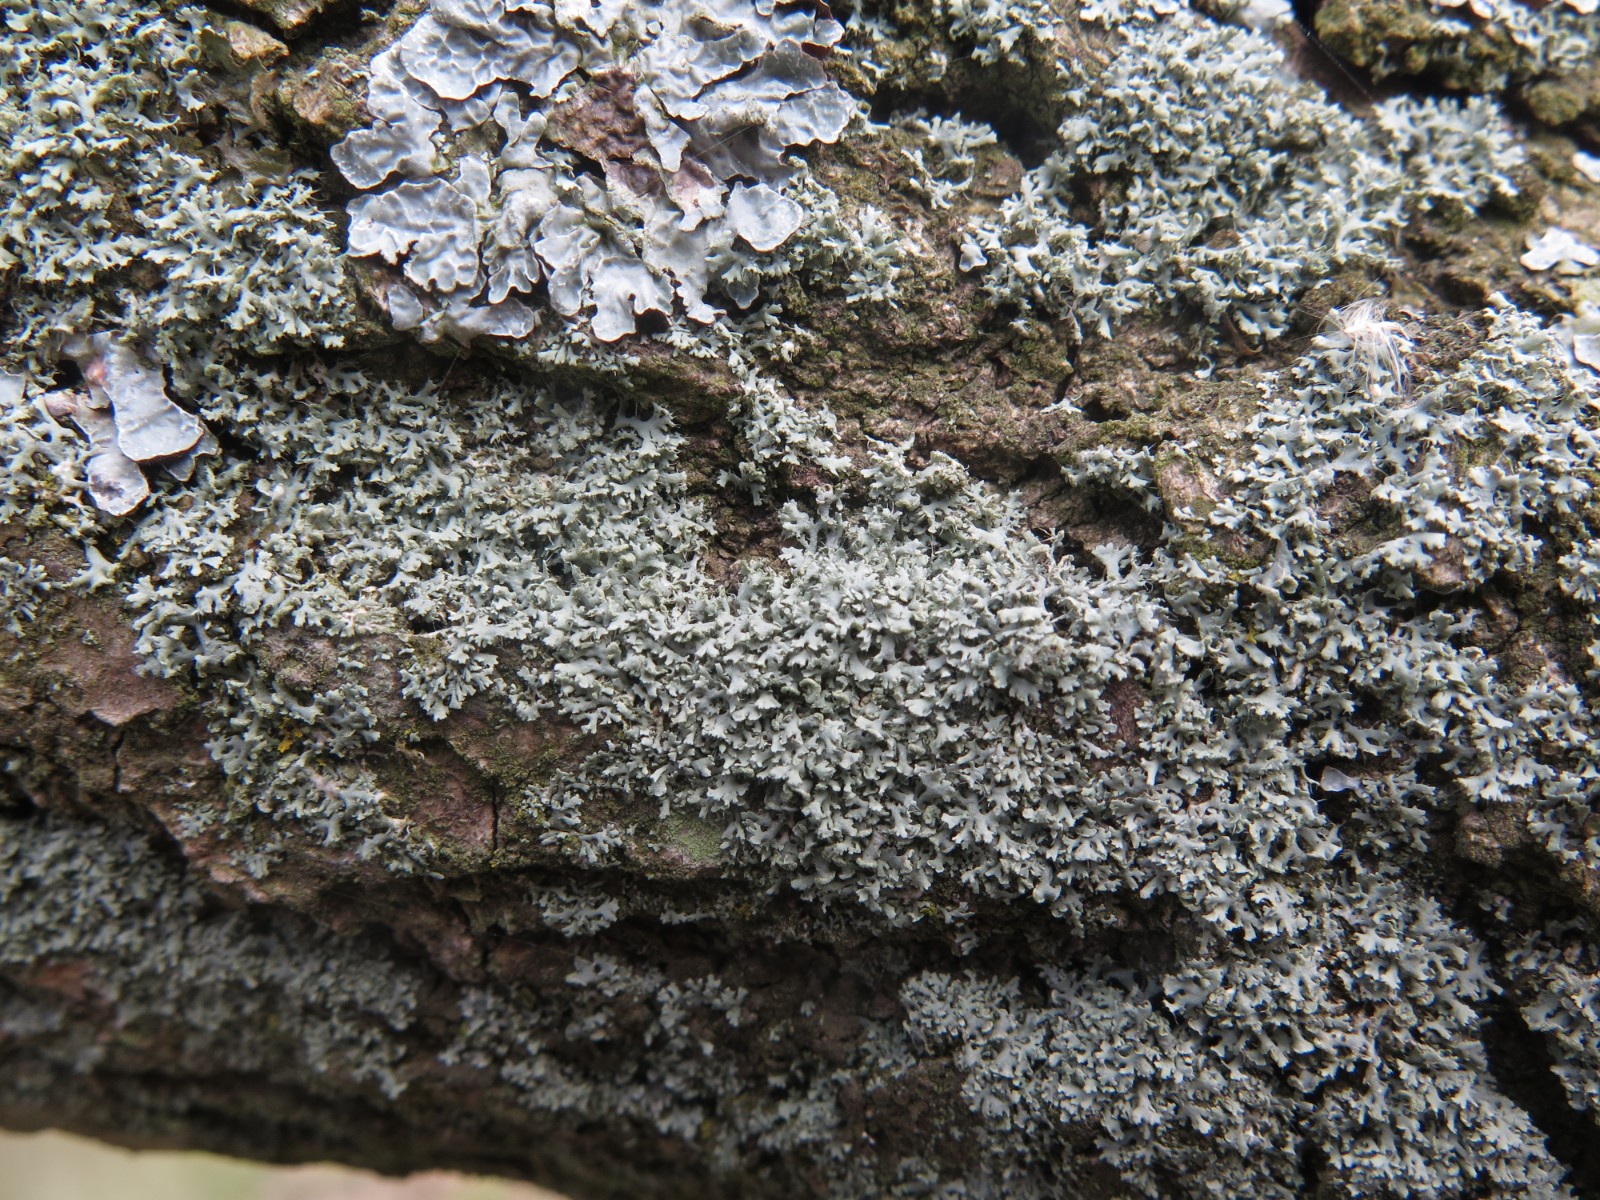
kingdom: Fungi
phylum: Ascomycota
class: Lecanoromycetes
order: Caliciales
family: Physciaceae
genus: Physcia
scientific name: Physcia tenella
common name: spæd rosetlav
